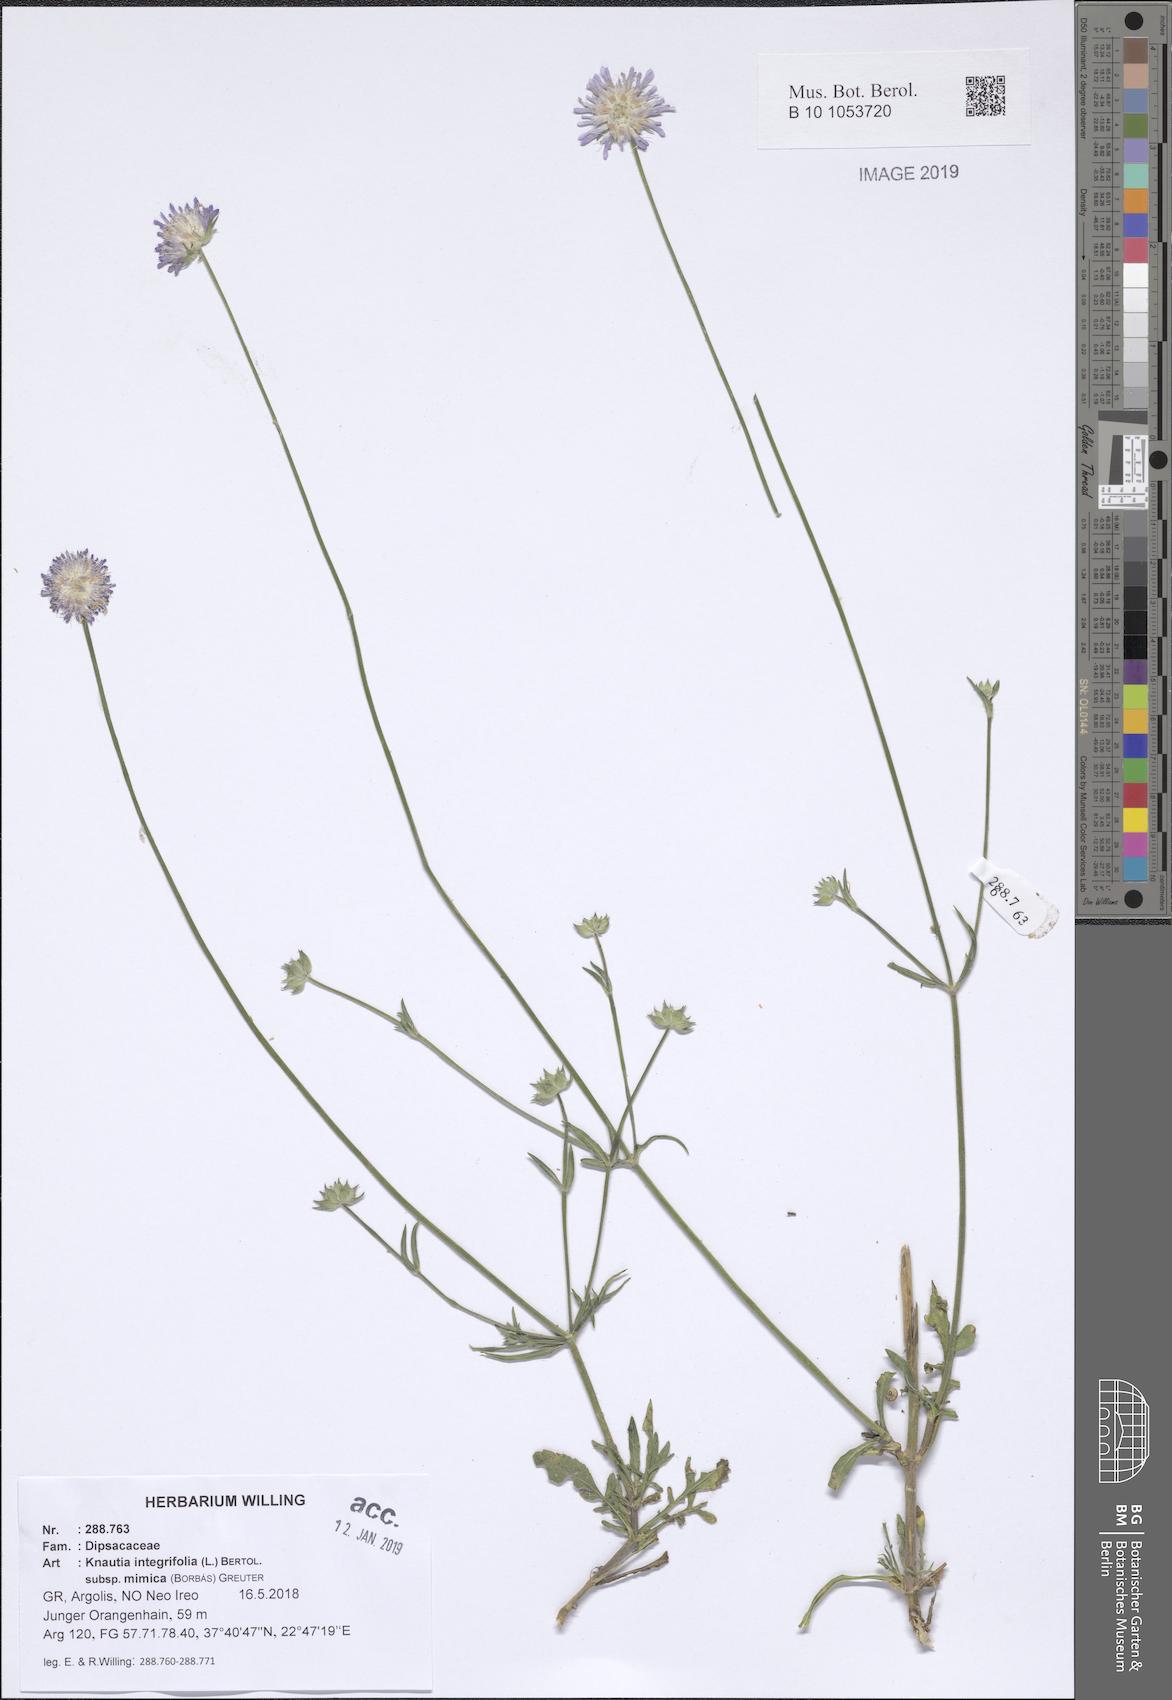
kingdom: Plantae
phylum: Tracheophyta
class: Magnoliopsida
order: Dipsacales
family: Caprifoliaceae
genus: Knautia
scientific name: Knautia integrifolia
